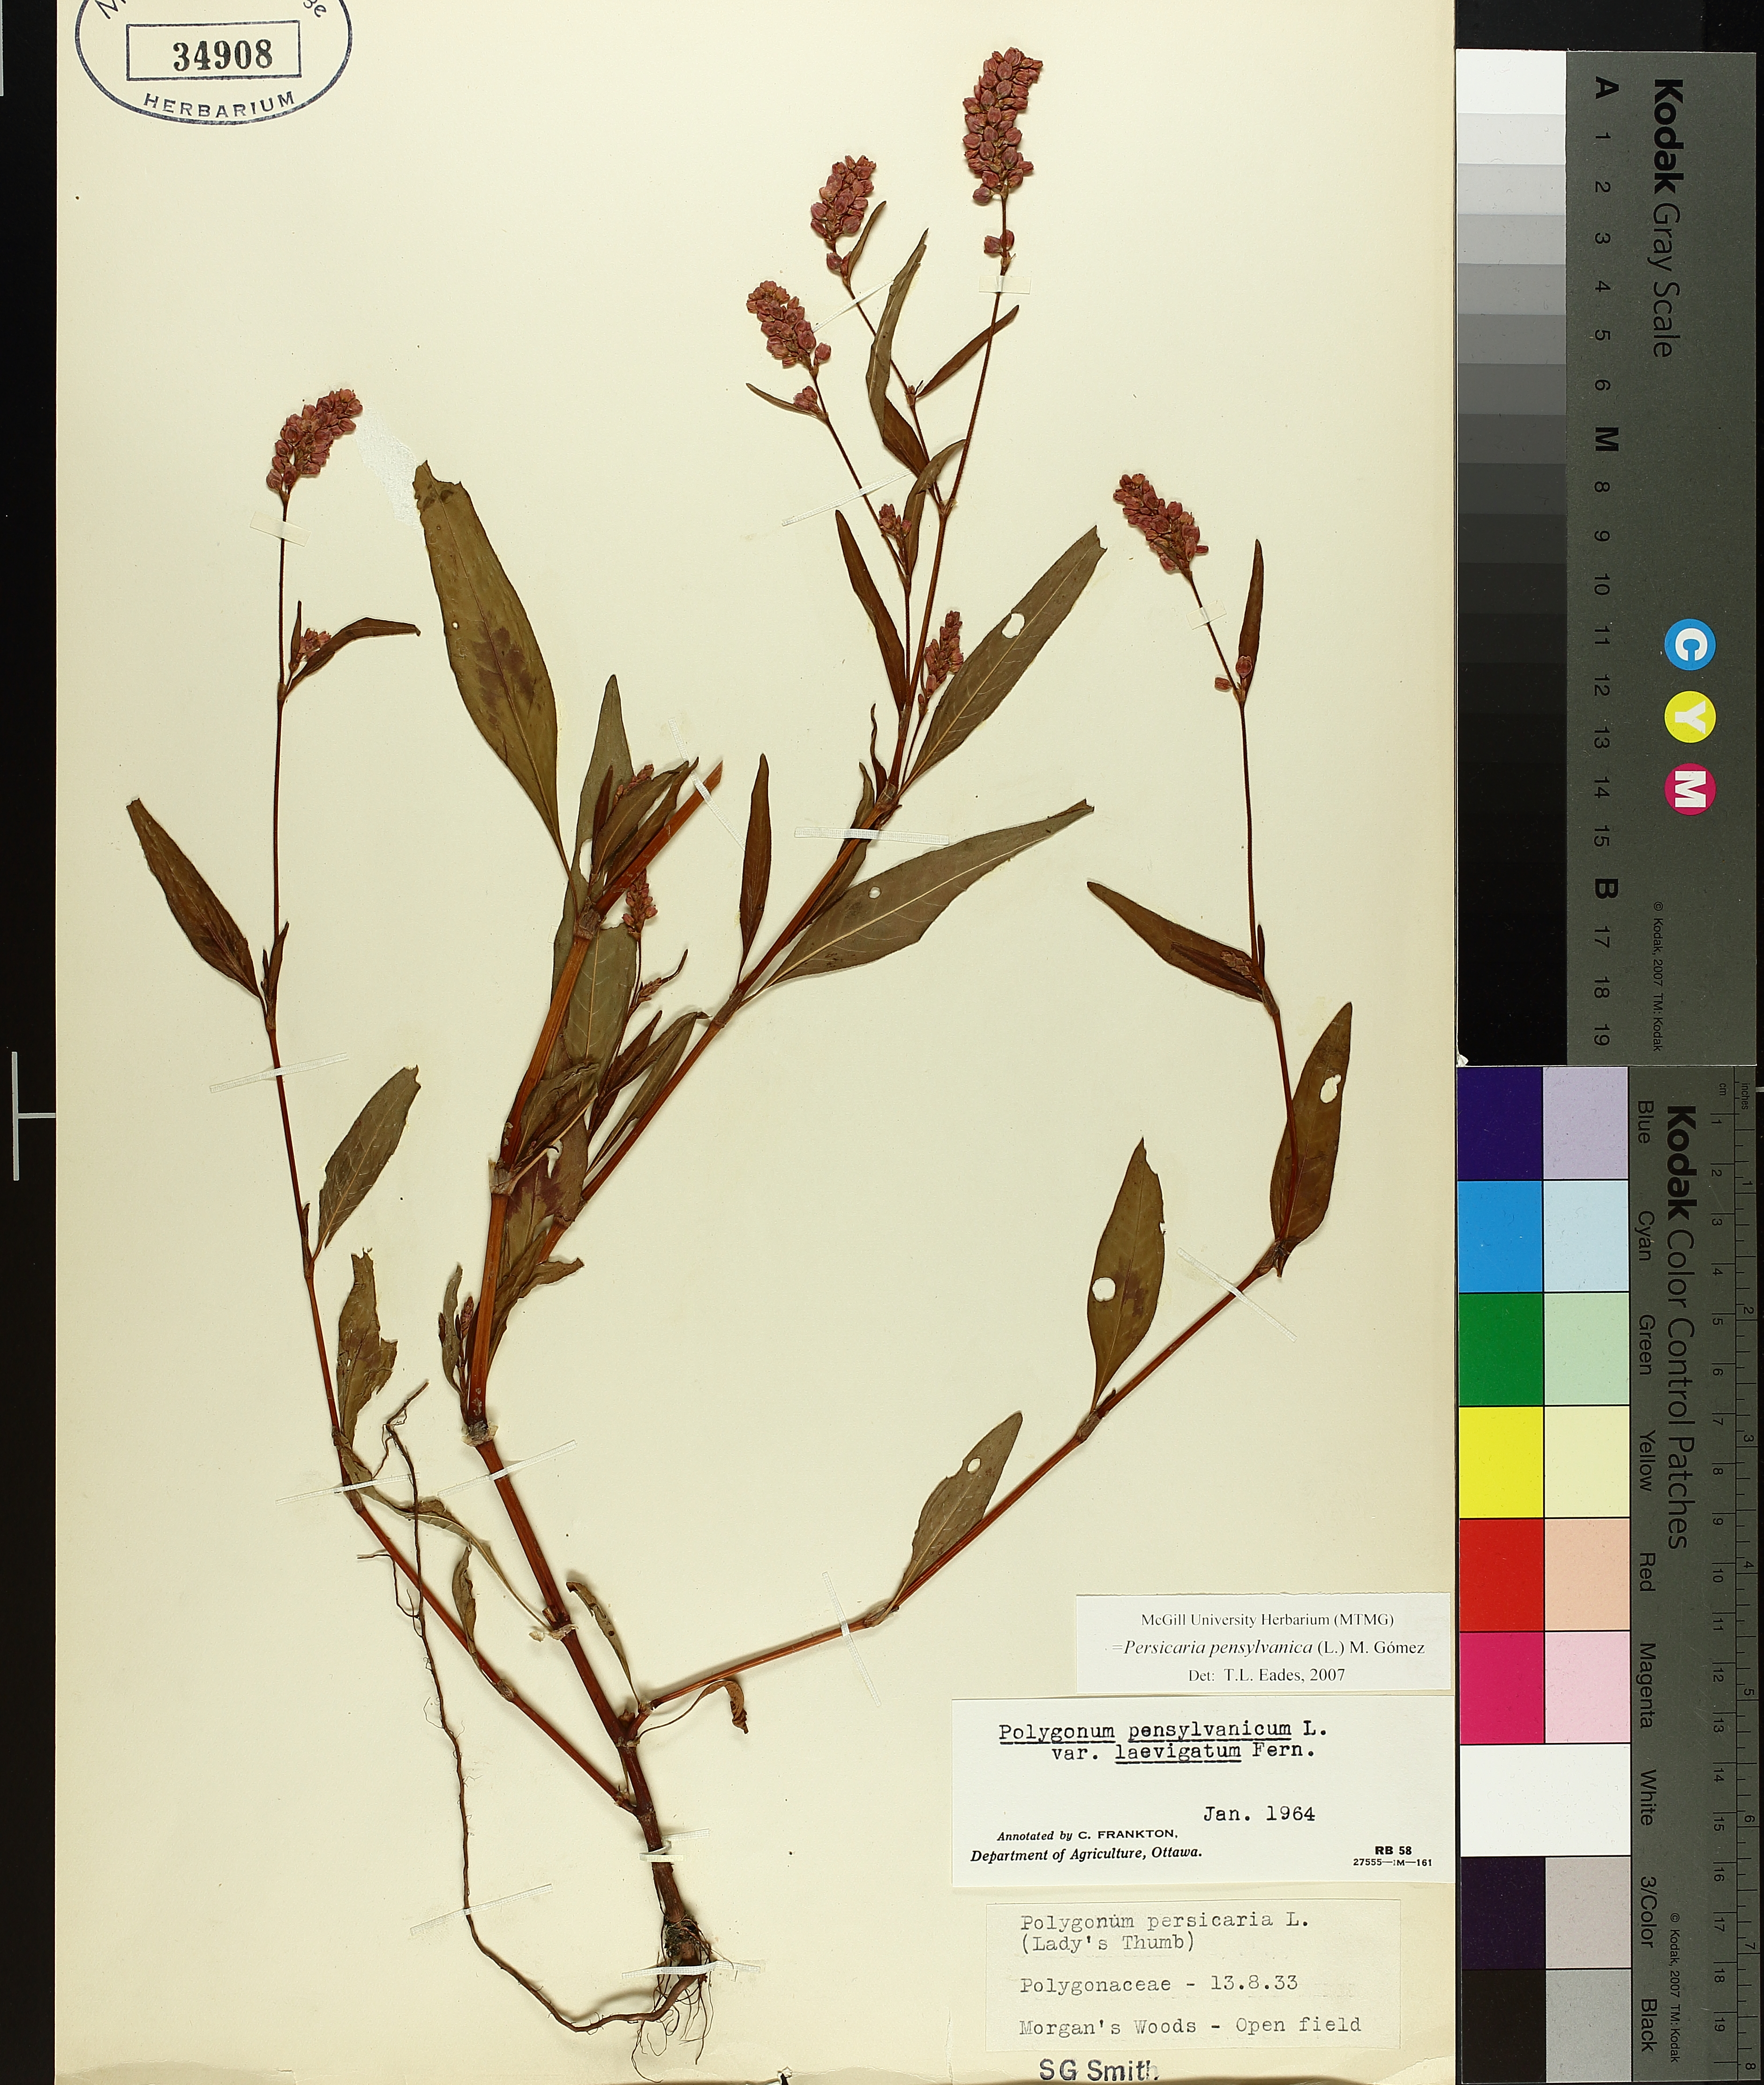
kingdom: Plantae
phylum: Tracheophyta
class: Magnoliopsida
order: Caryophyllales
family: Polygonaceae
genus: Persicaria
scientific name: Persicaria pensylvanica
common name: Pinkweed
